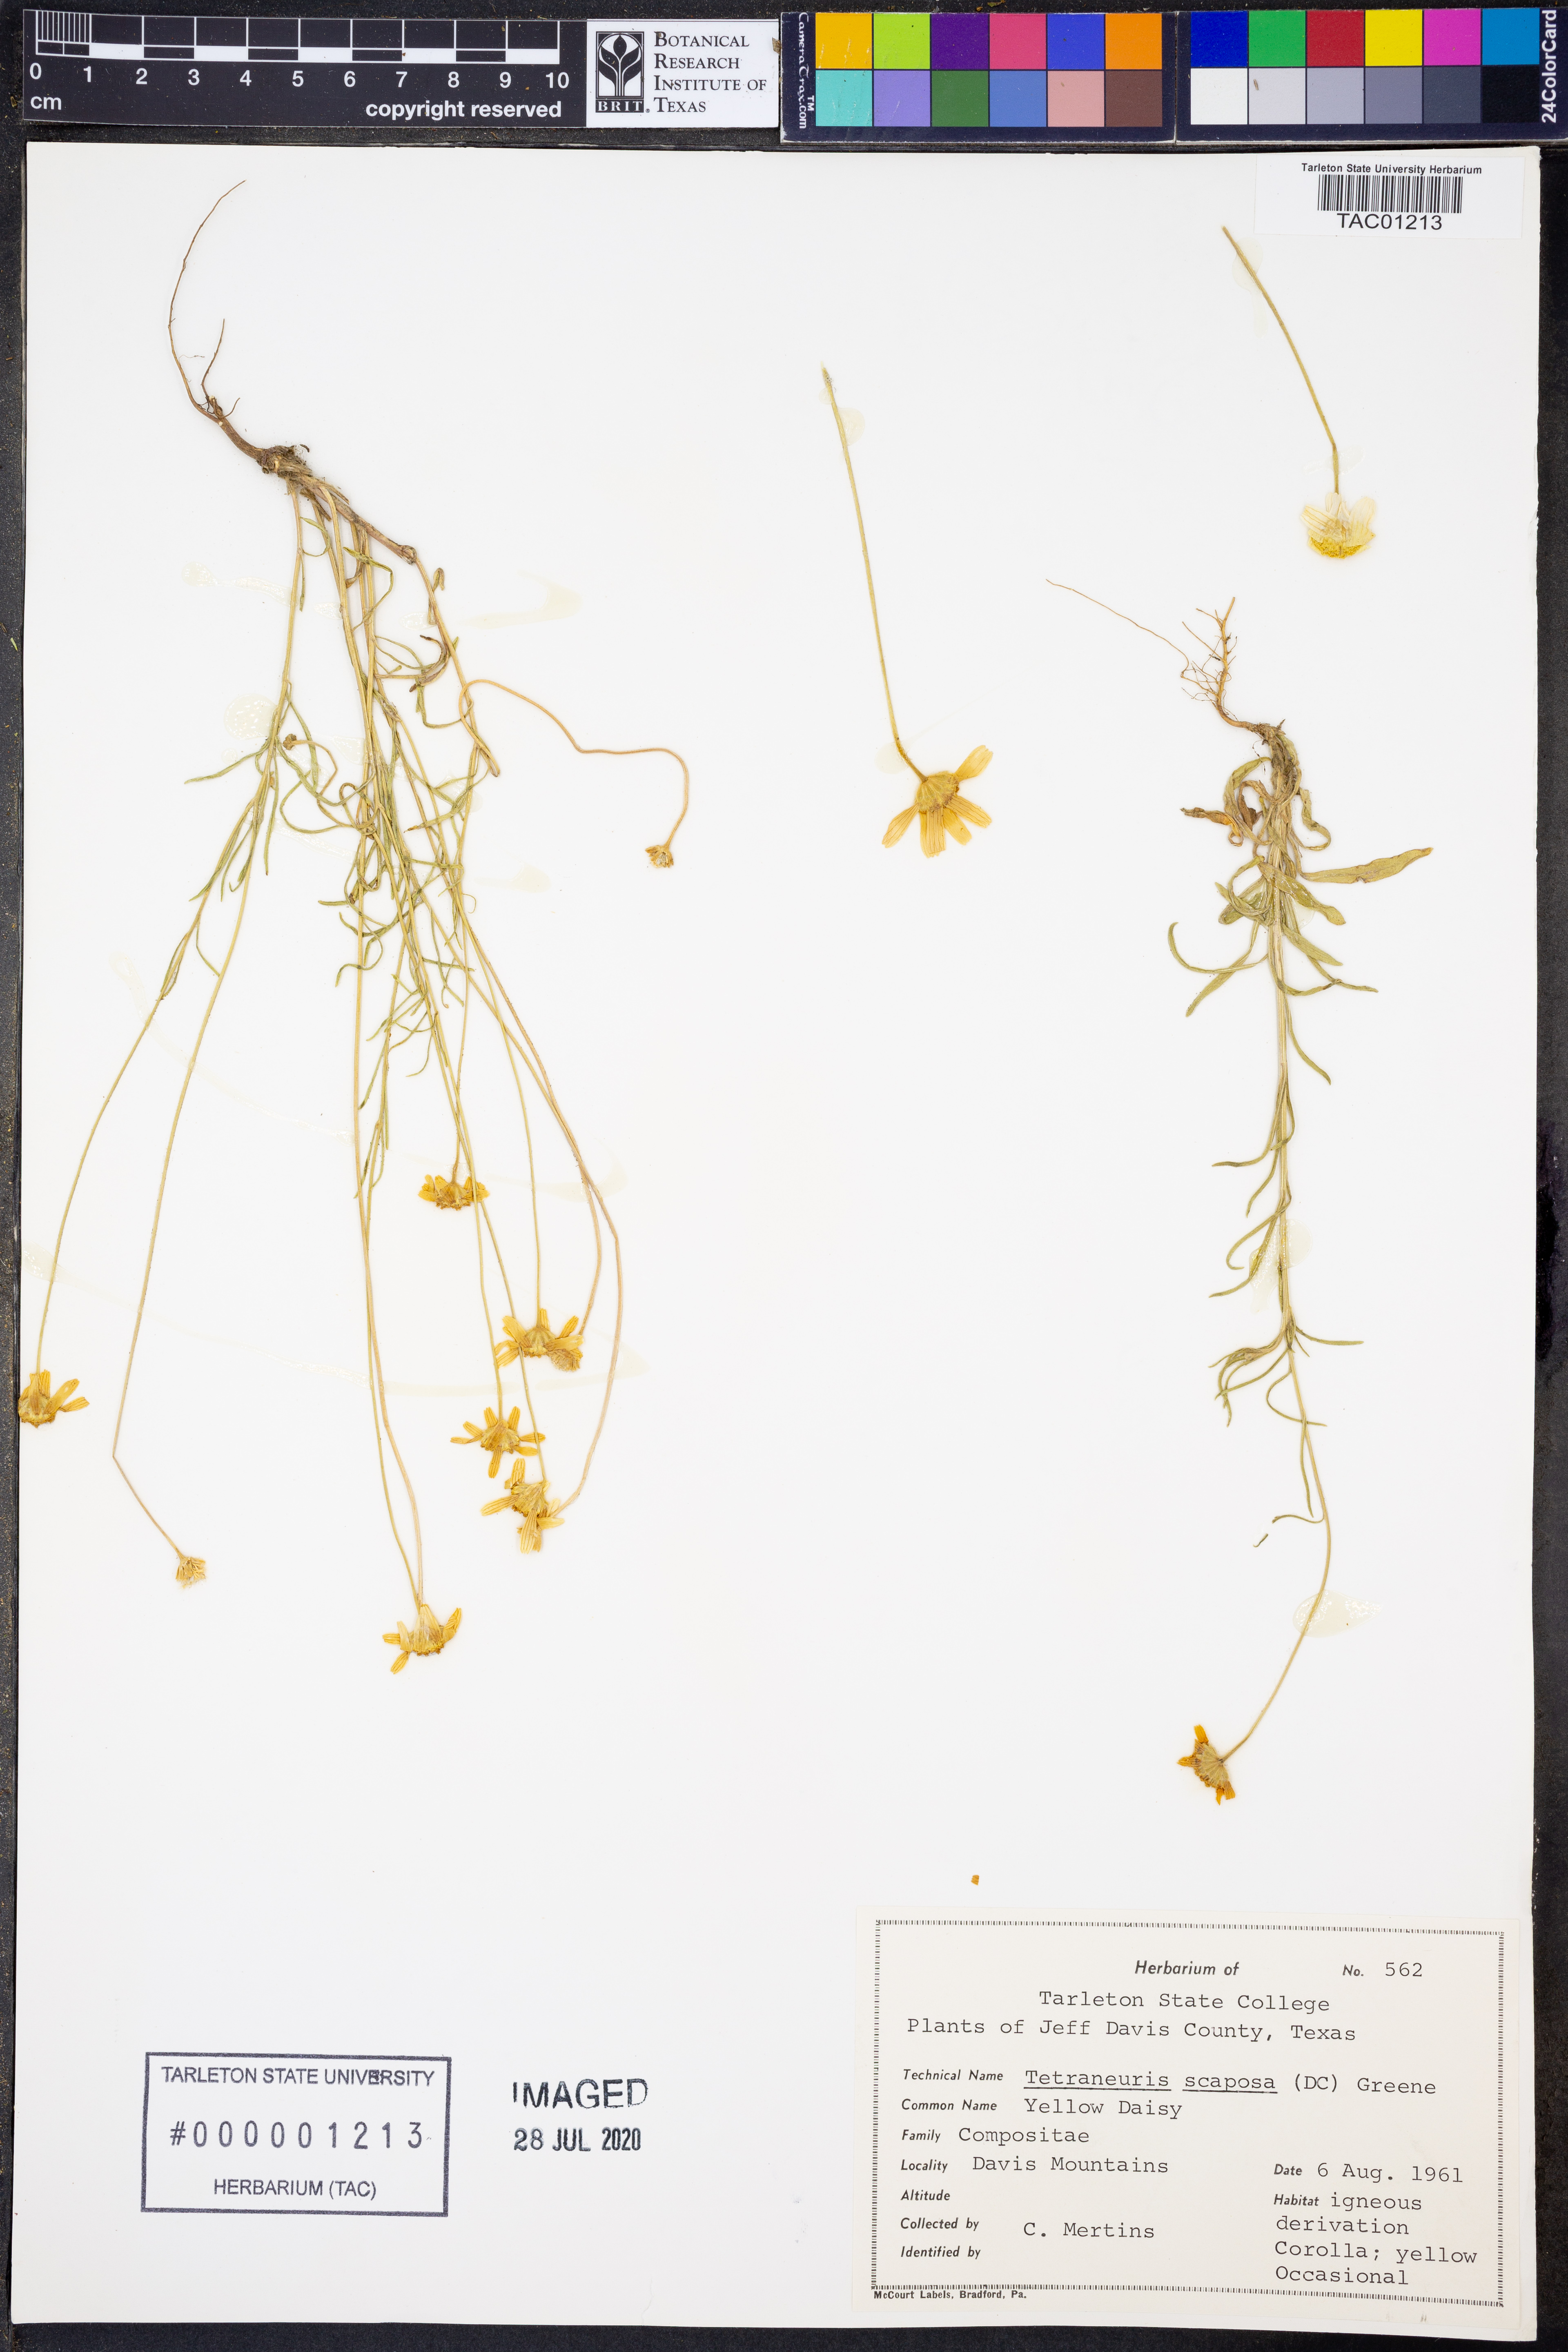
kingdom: Plantae
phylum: Tracheophyta
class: Magnoliopsida
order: Asterales
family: Asteraceae
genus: Tetraneuris
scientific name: Tetraneuris scaposa
